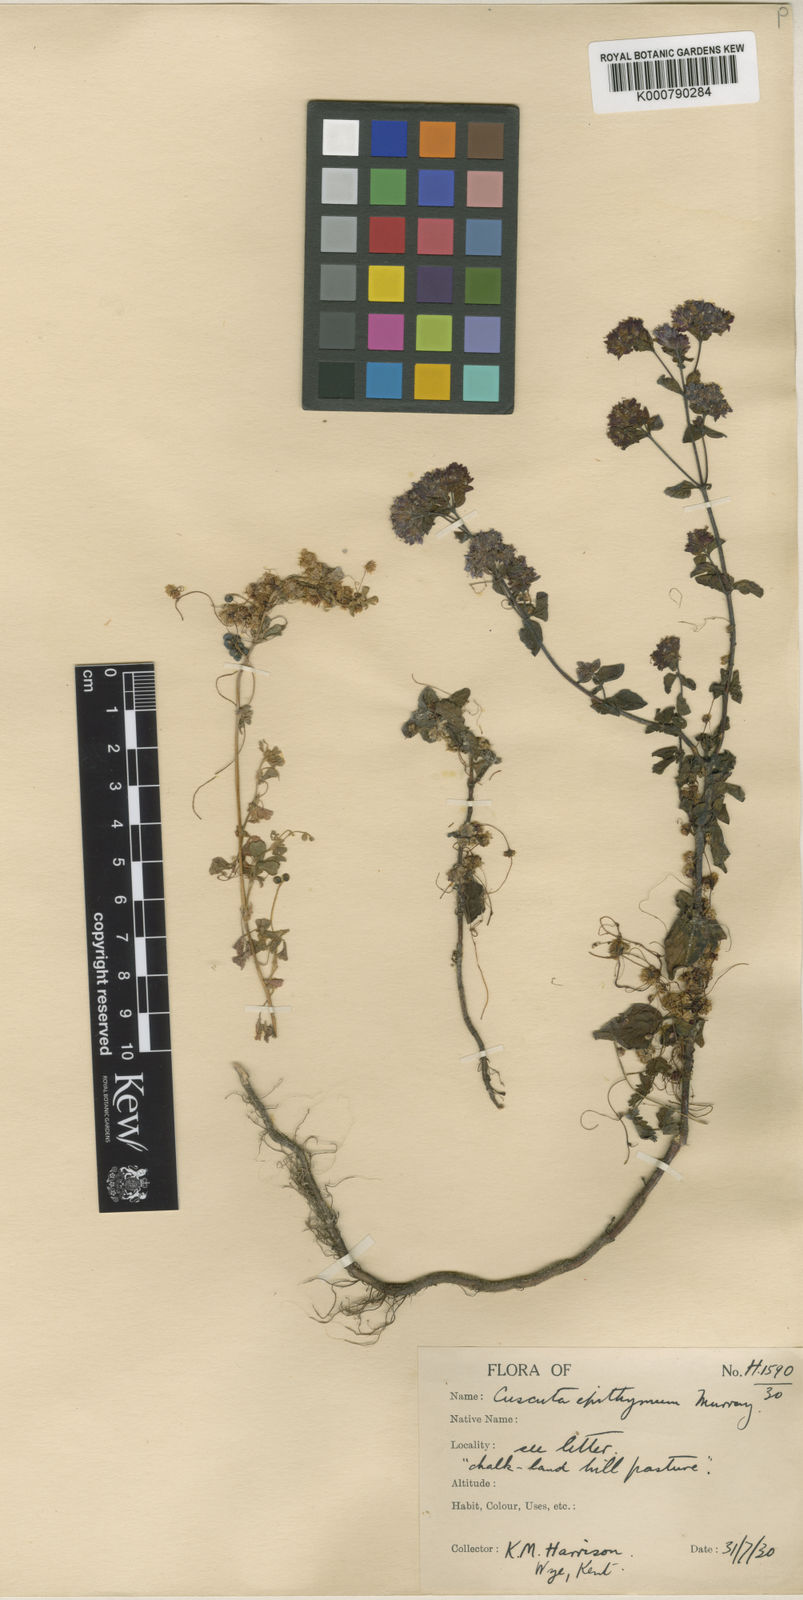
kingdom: Plantae
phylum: Tracheophyta
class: Magnoliopsida
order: Solanales
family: Convolvulaceae
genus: Cuscuta
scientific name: Cuscuta epithymum
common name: Clover dodder
